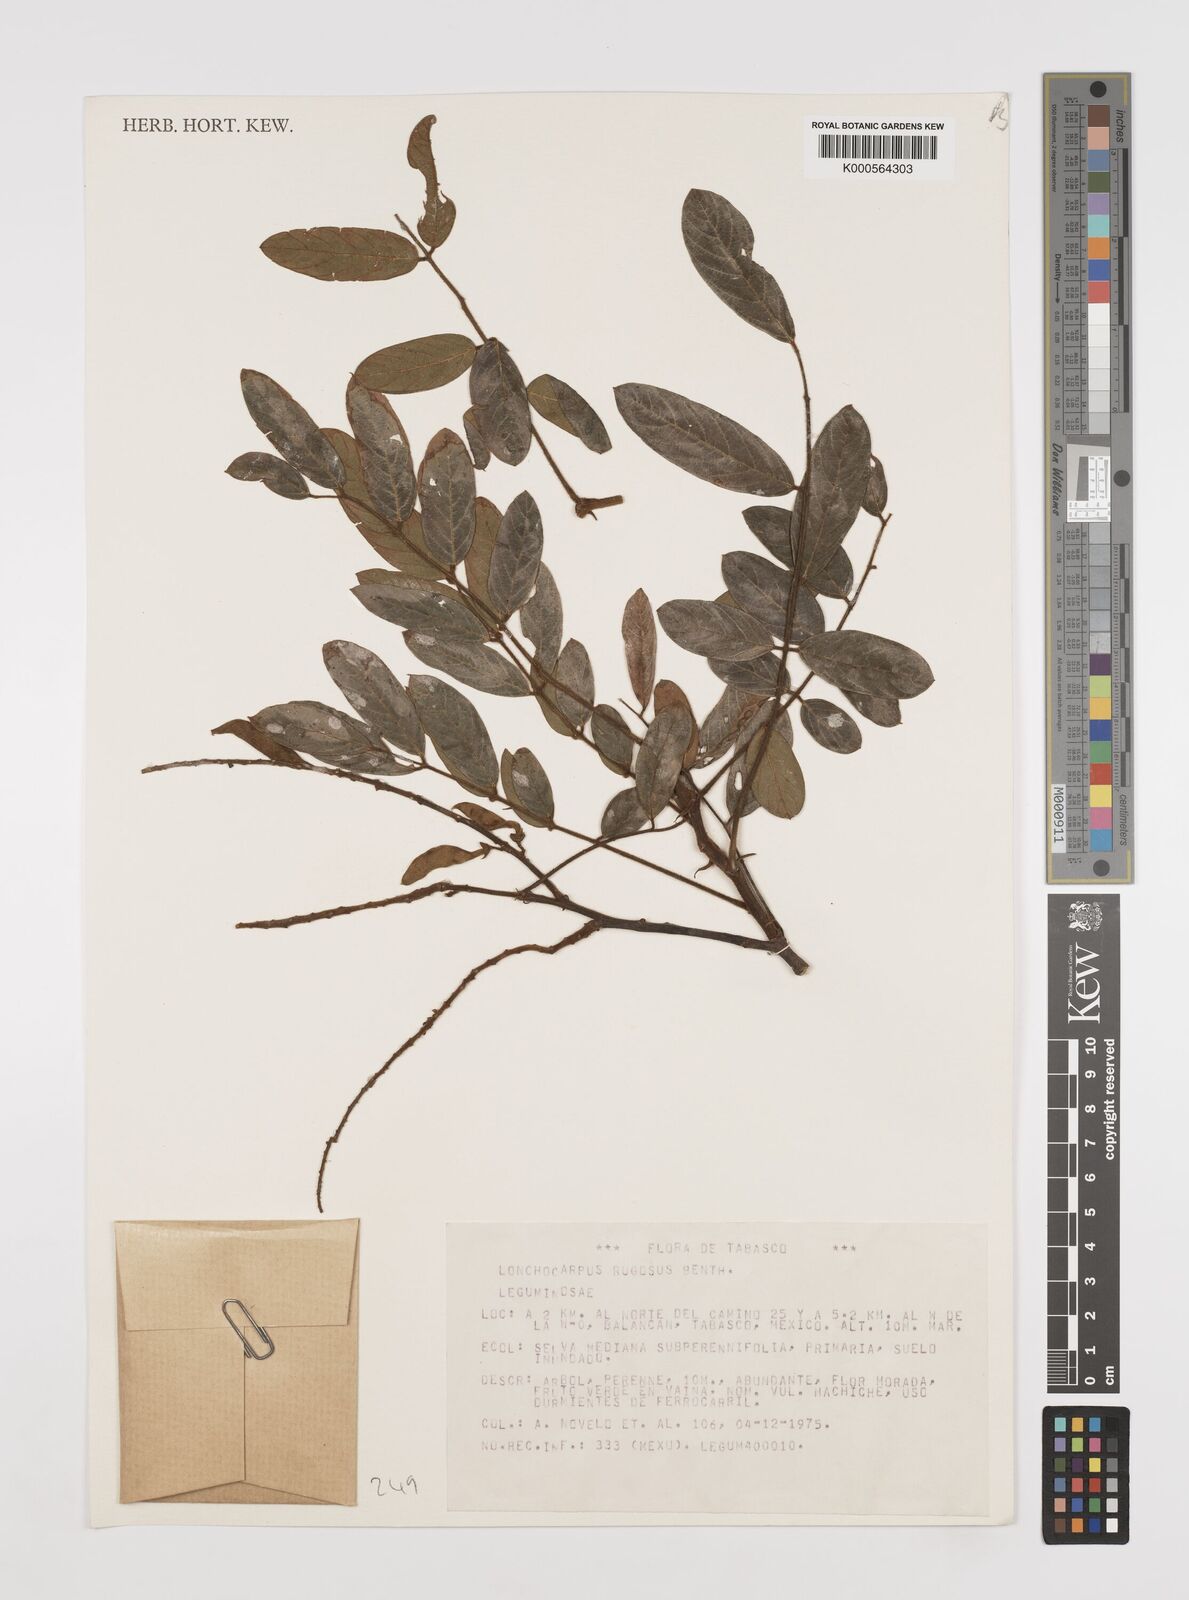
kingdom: Plantae
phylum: Tracheophyta
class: Magnoliopsida
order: Fabales
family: Fabaceae
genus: Lonchocarpus
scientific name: Lonchocarpus rugosus
